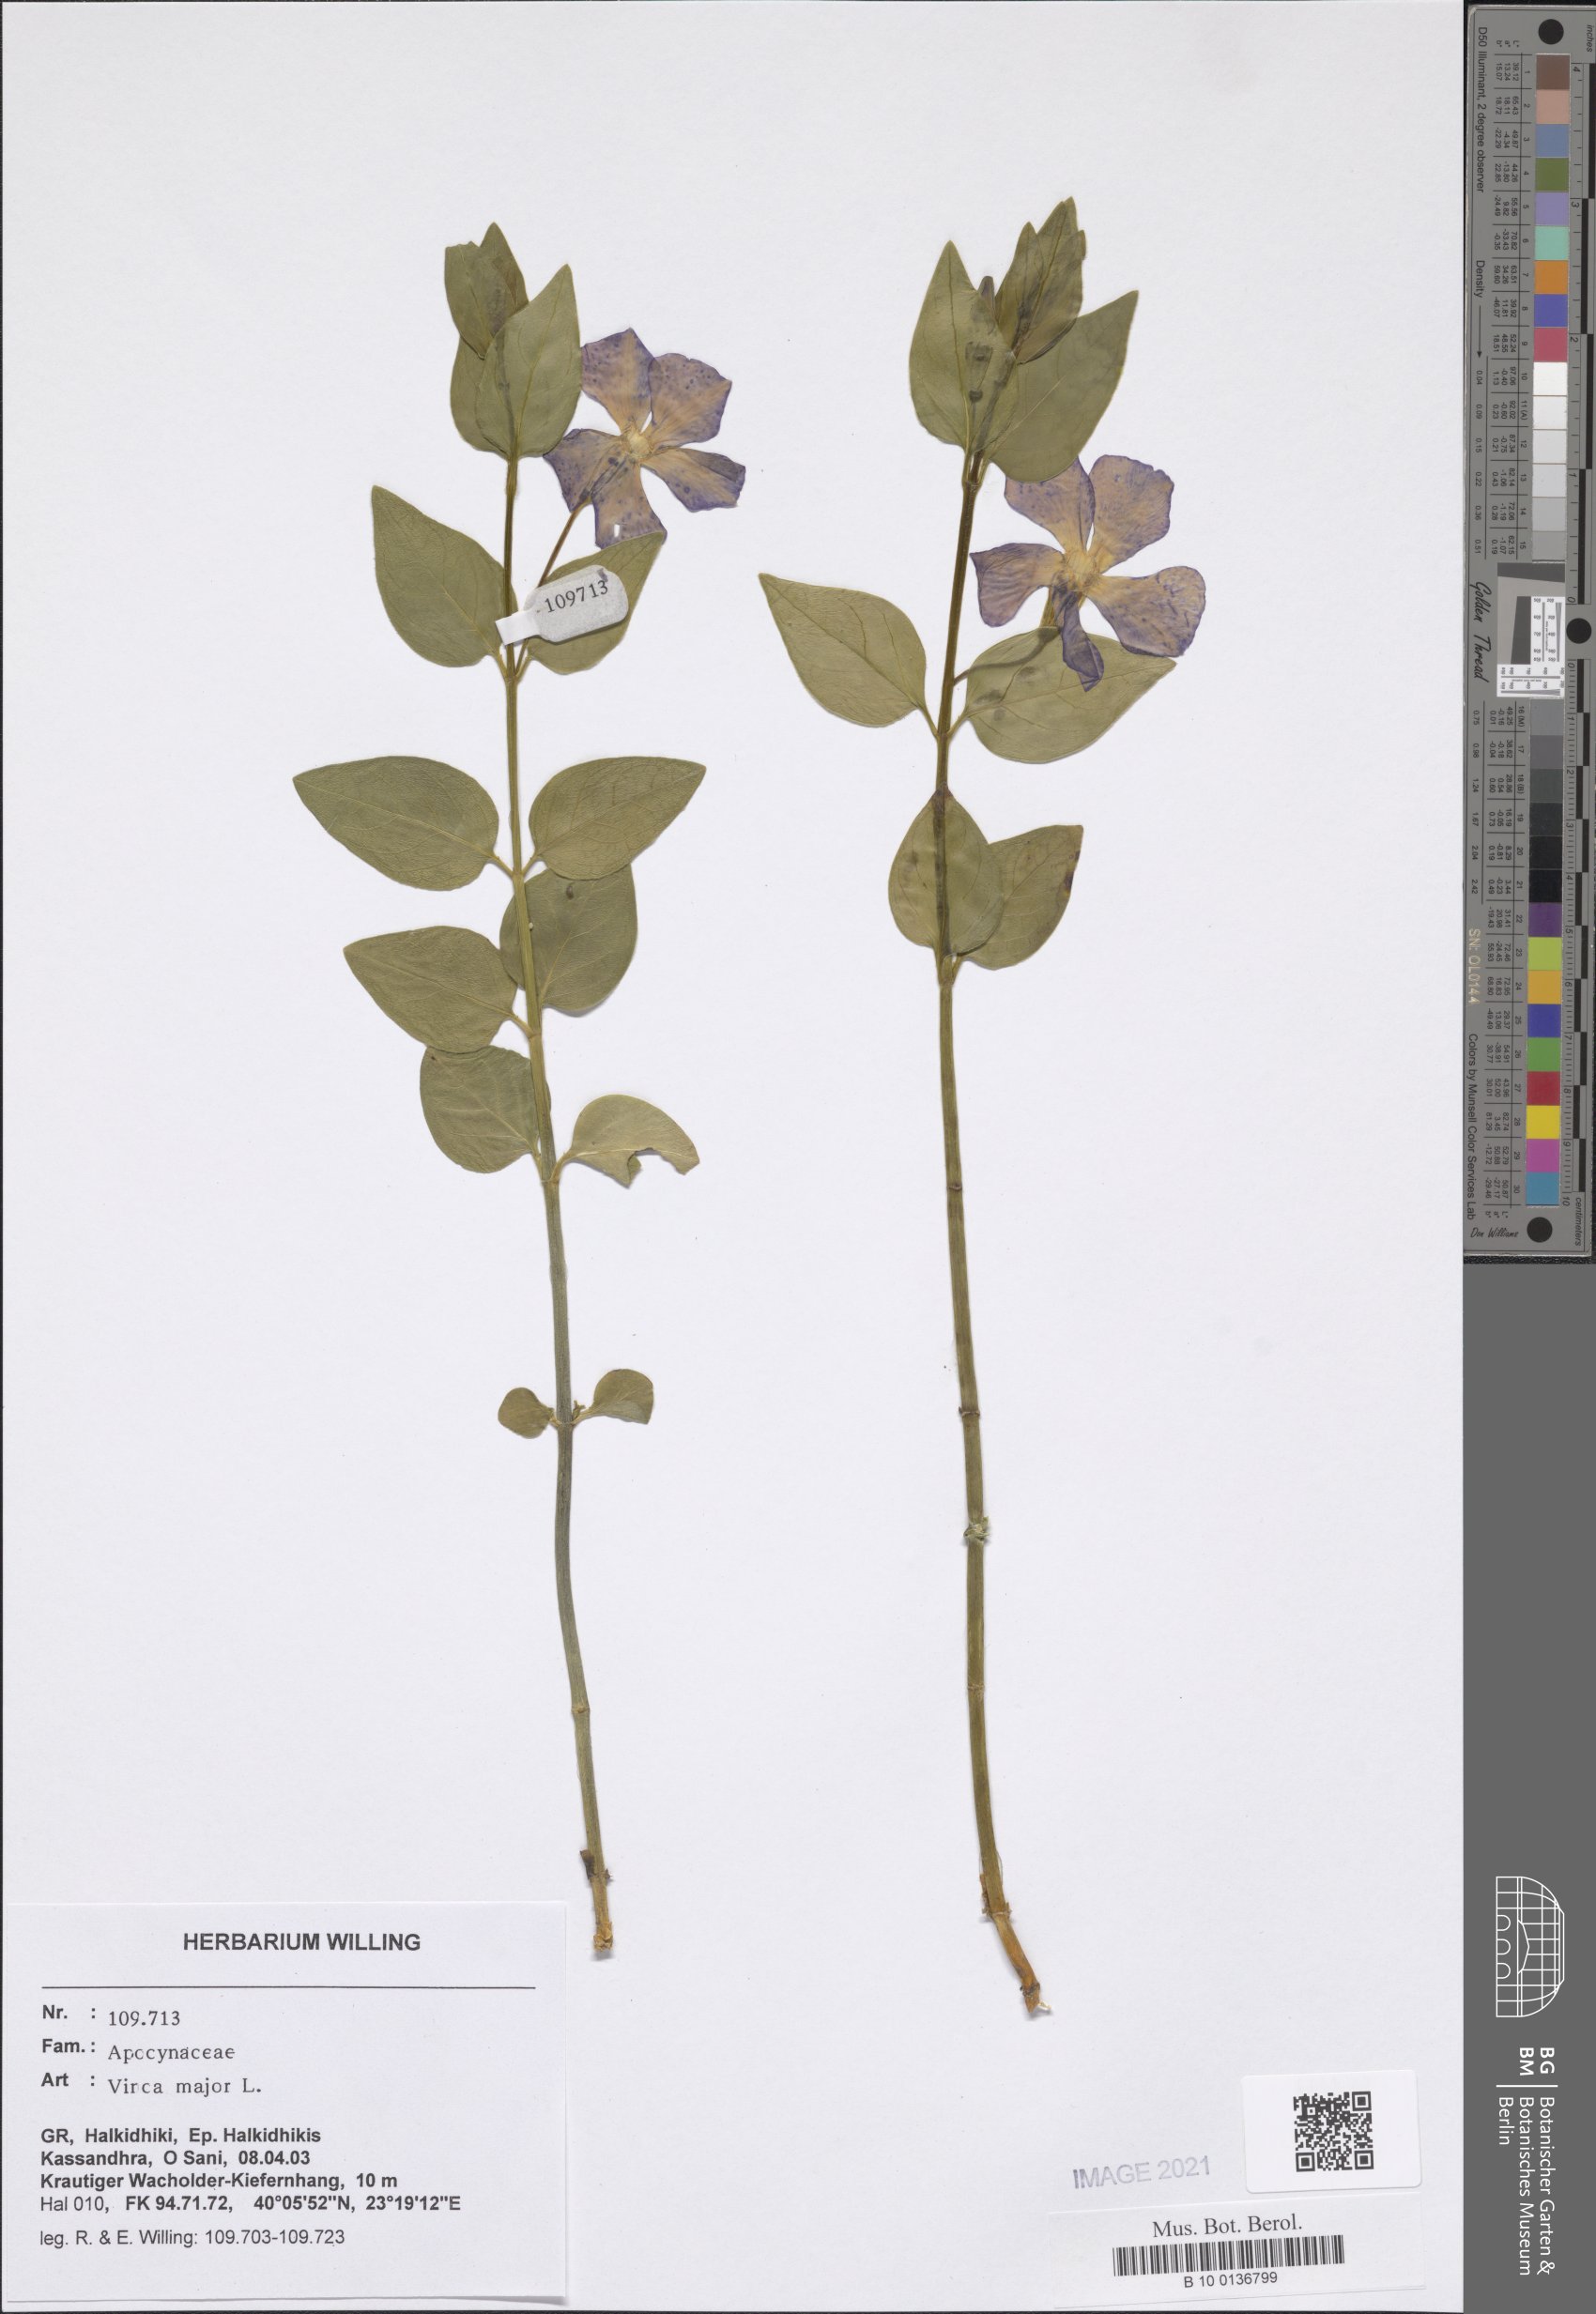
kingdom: Plantae
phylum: Tracheophyta
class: Magnoliopsida
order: Gentianales
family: Apocynaceae
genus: Vinca
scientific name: Vinca major
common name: Greater periwinkle
